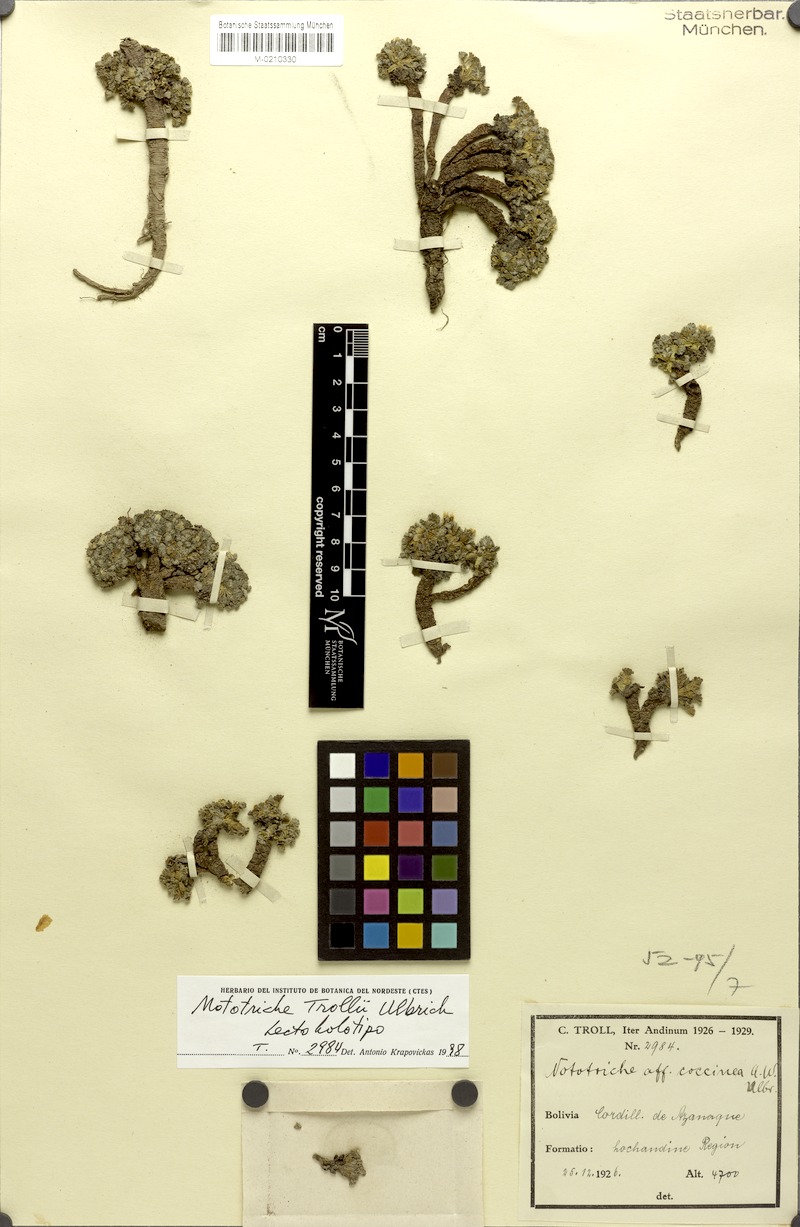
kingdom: Plantae
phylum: Tracheophyta
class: Magnoliopsida
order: Malvales
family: Malvaceae
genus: Nototriche
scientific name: Nototriche trollii
